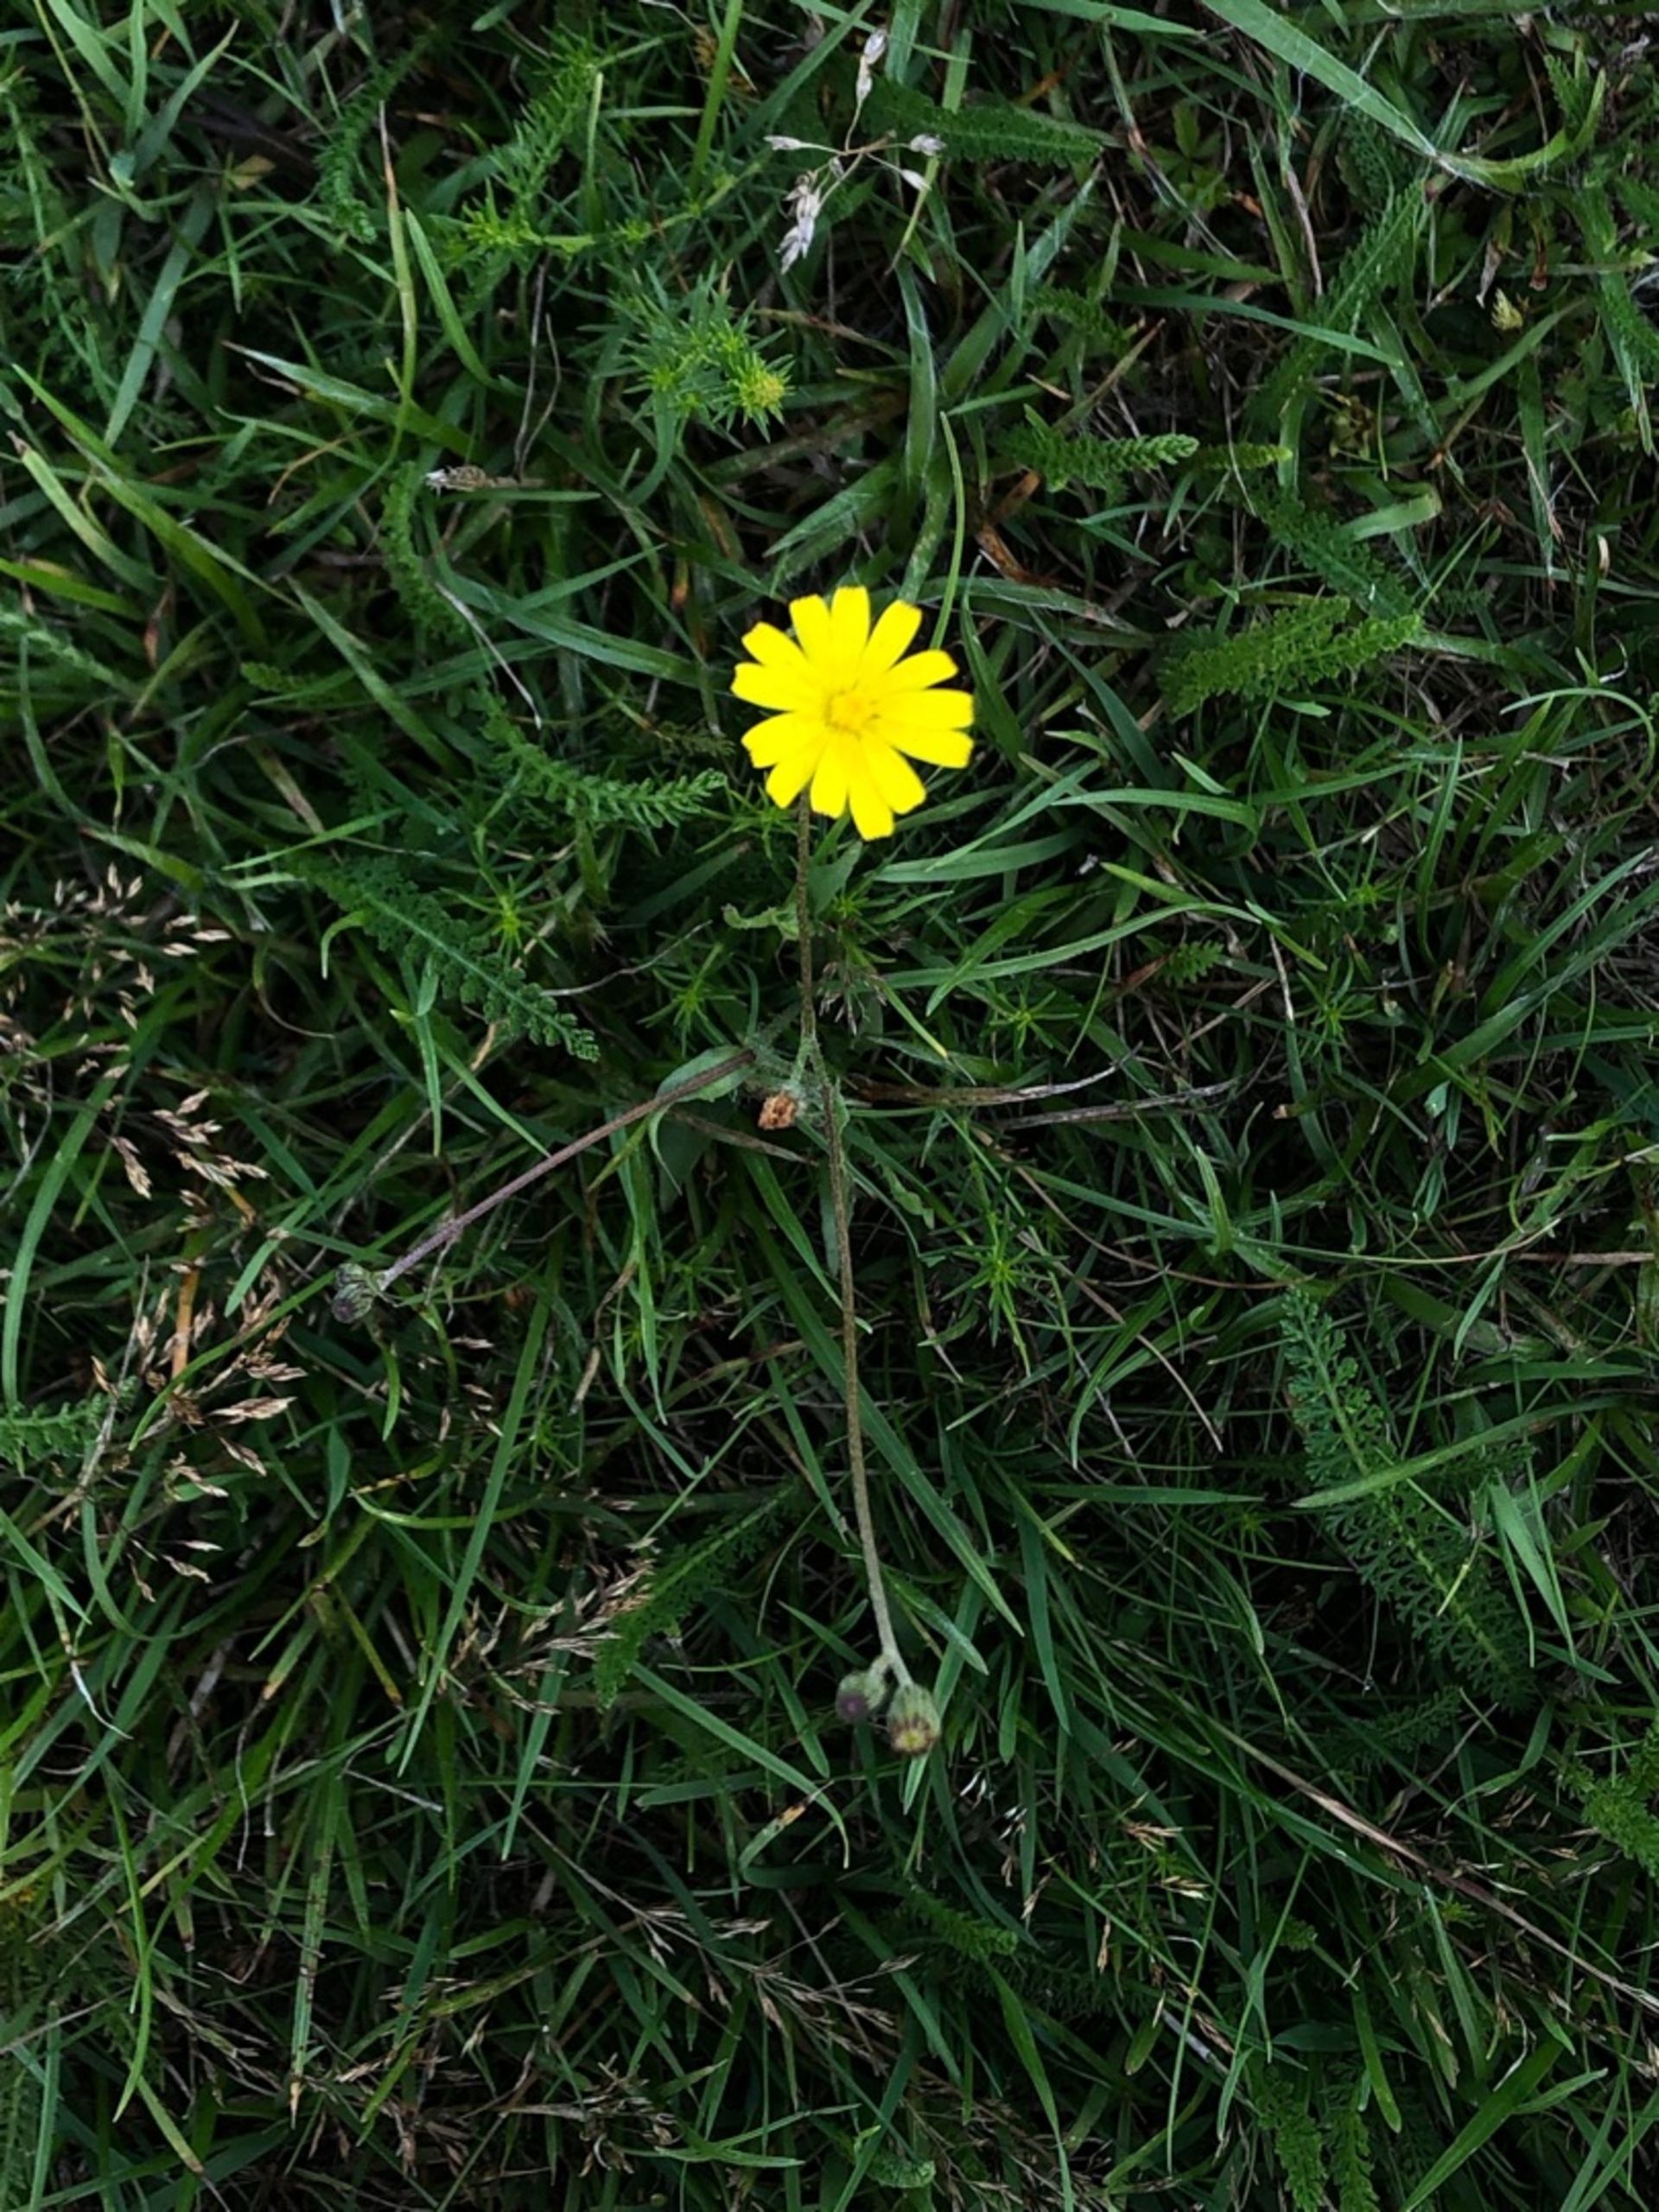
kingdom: Plantae
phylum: Tracheophyta
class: Magnoliopsida
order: Asterales
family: Asteraceae
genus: Crepis
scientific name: Crepis capillaris
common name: Grøn høgeskæg
